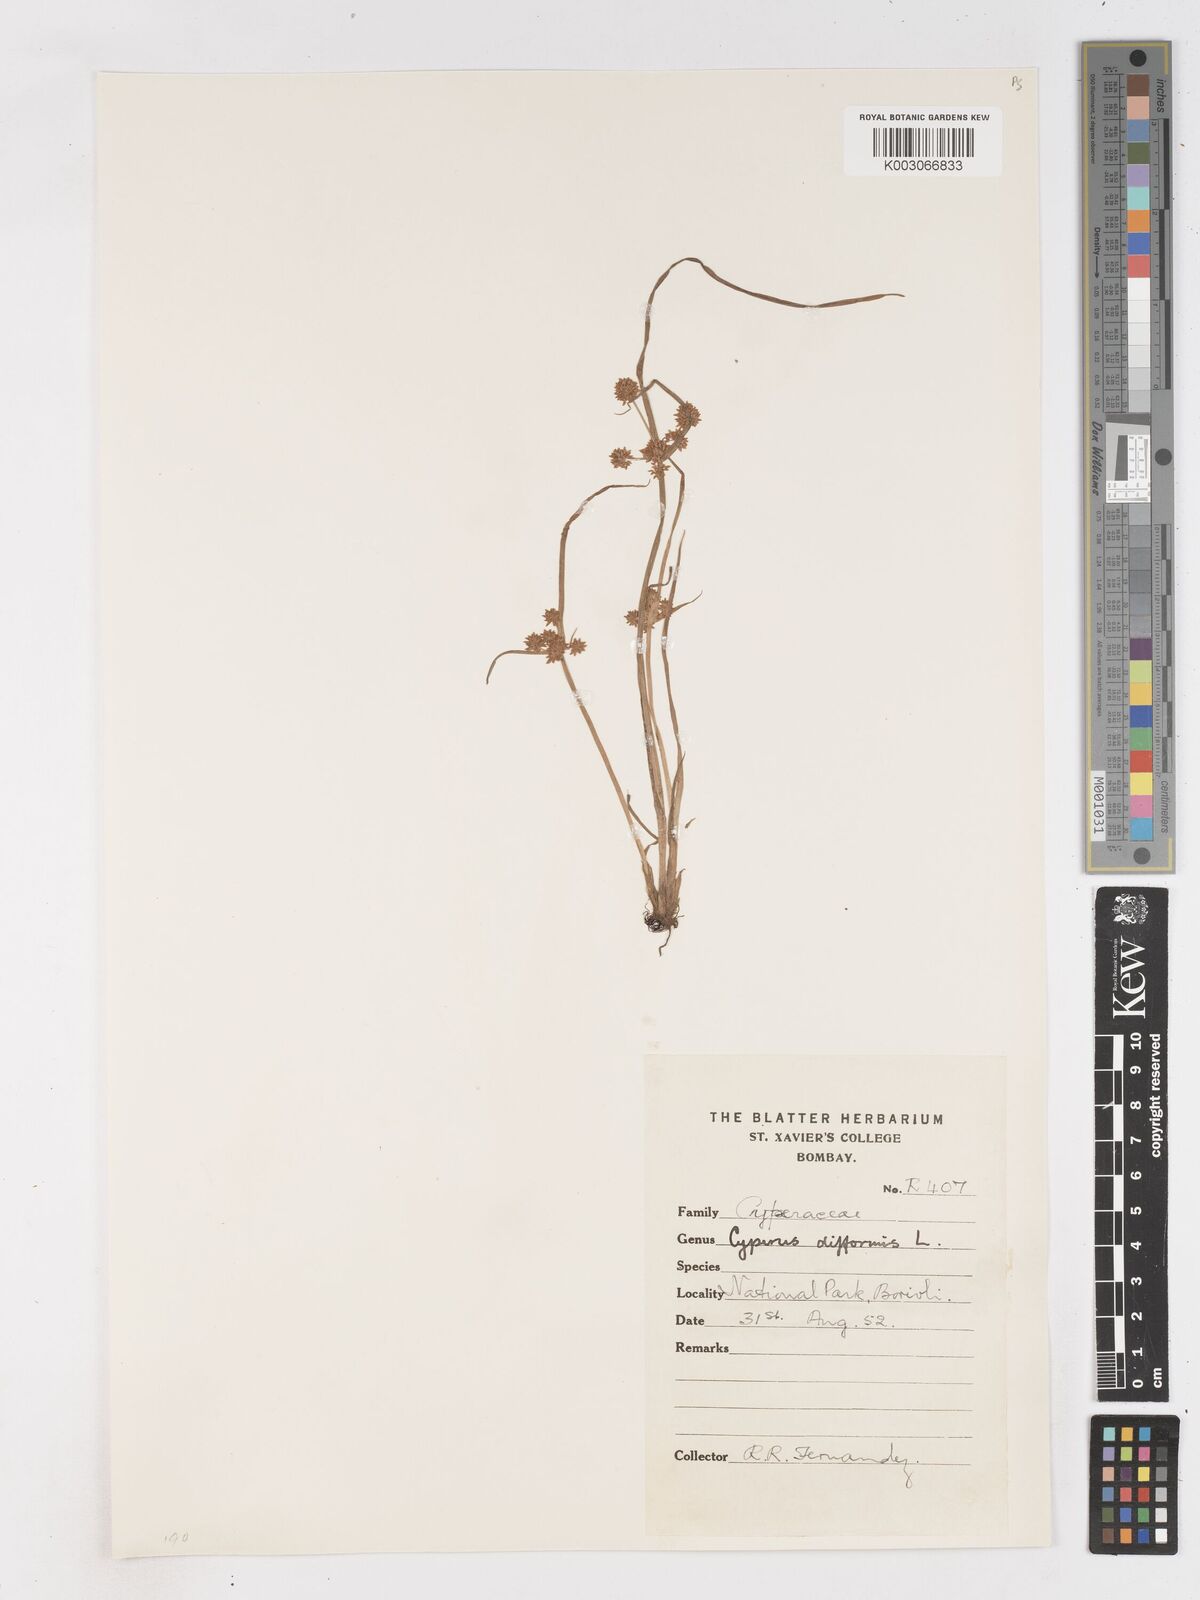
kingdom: Plantae
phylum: Tracheophyta
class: Liliopsida
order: Poales
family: Cyperaceae
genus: Cyperus
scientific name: Cyperus difformis
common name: Variable flatsedge
